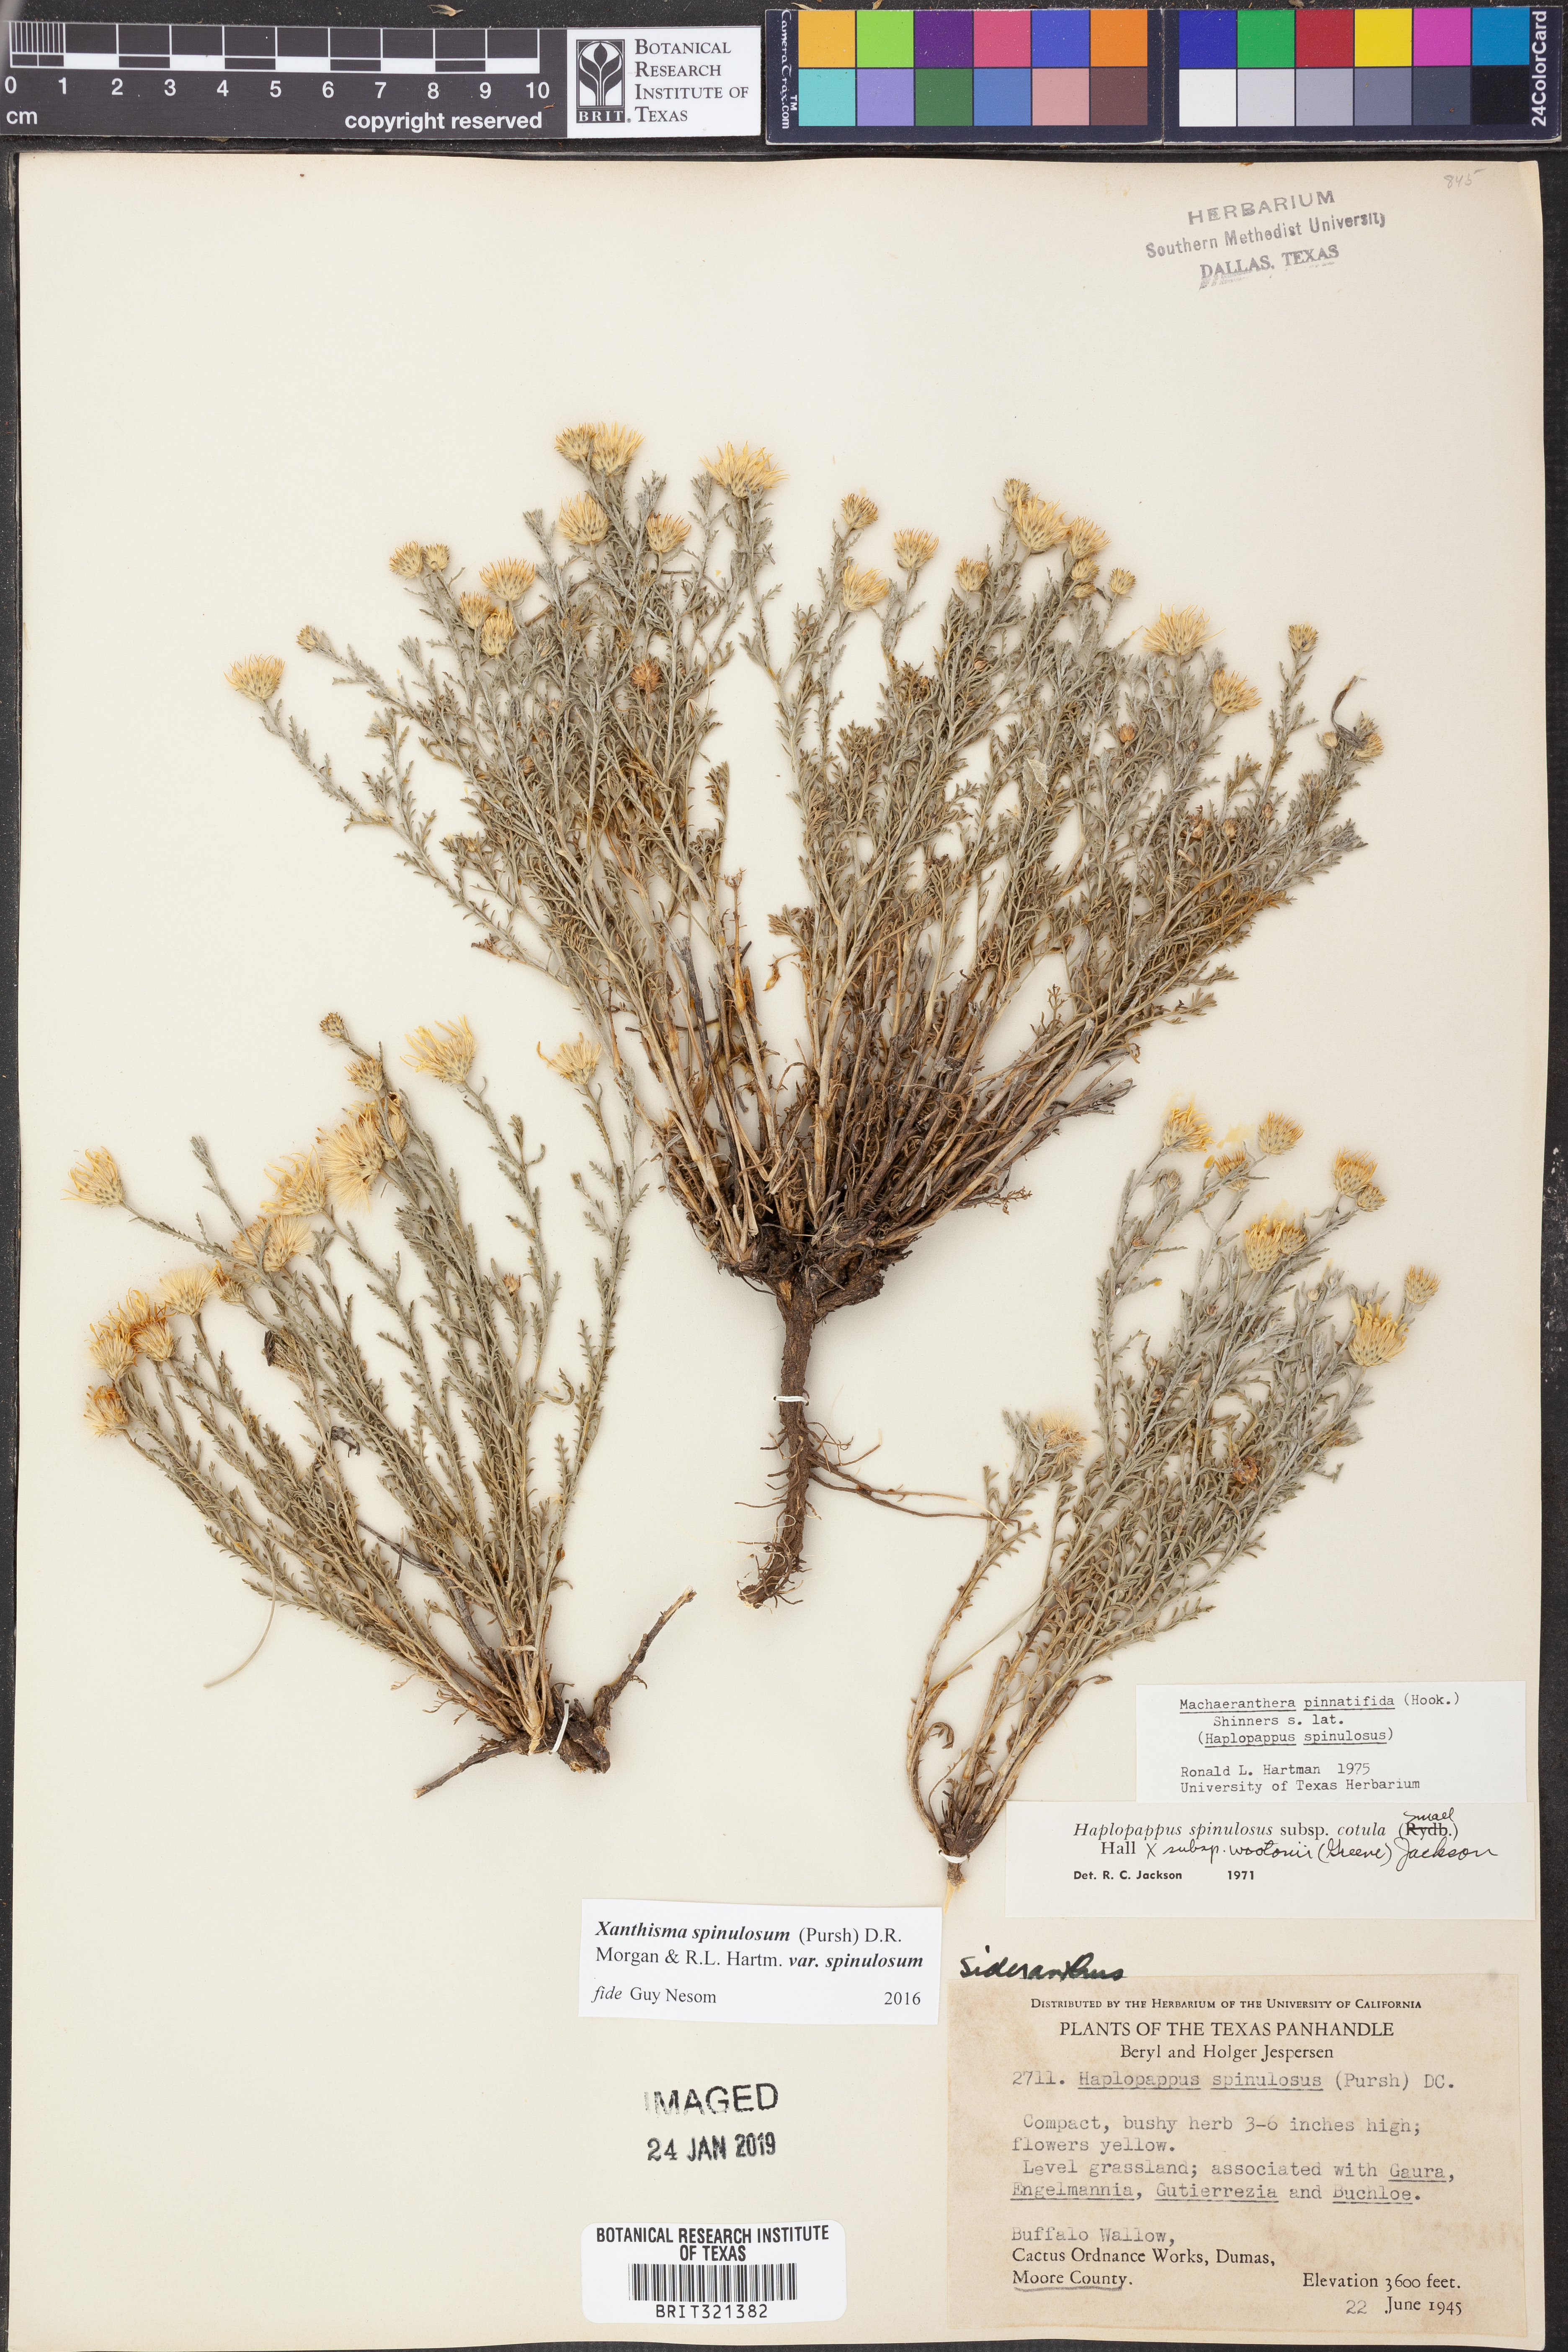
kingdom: Plantae
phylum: Tracheophyta
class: Magnoliopsida
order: Asterales
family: Asteraceae
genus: Xanthisma
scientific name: Xanthisma spinulosum
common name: Spiny goldenweed
